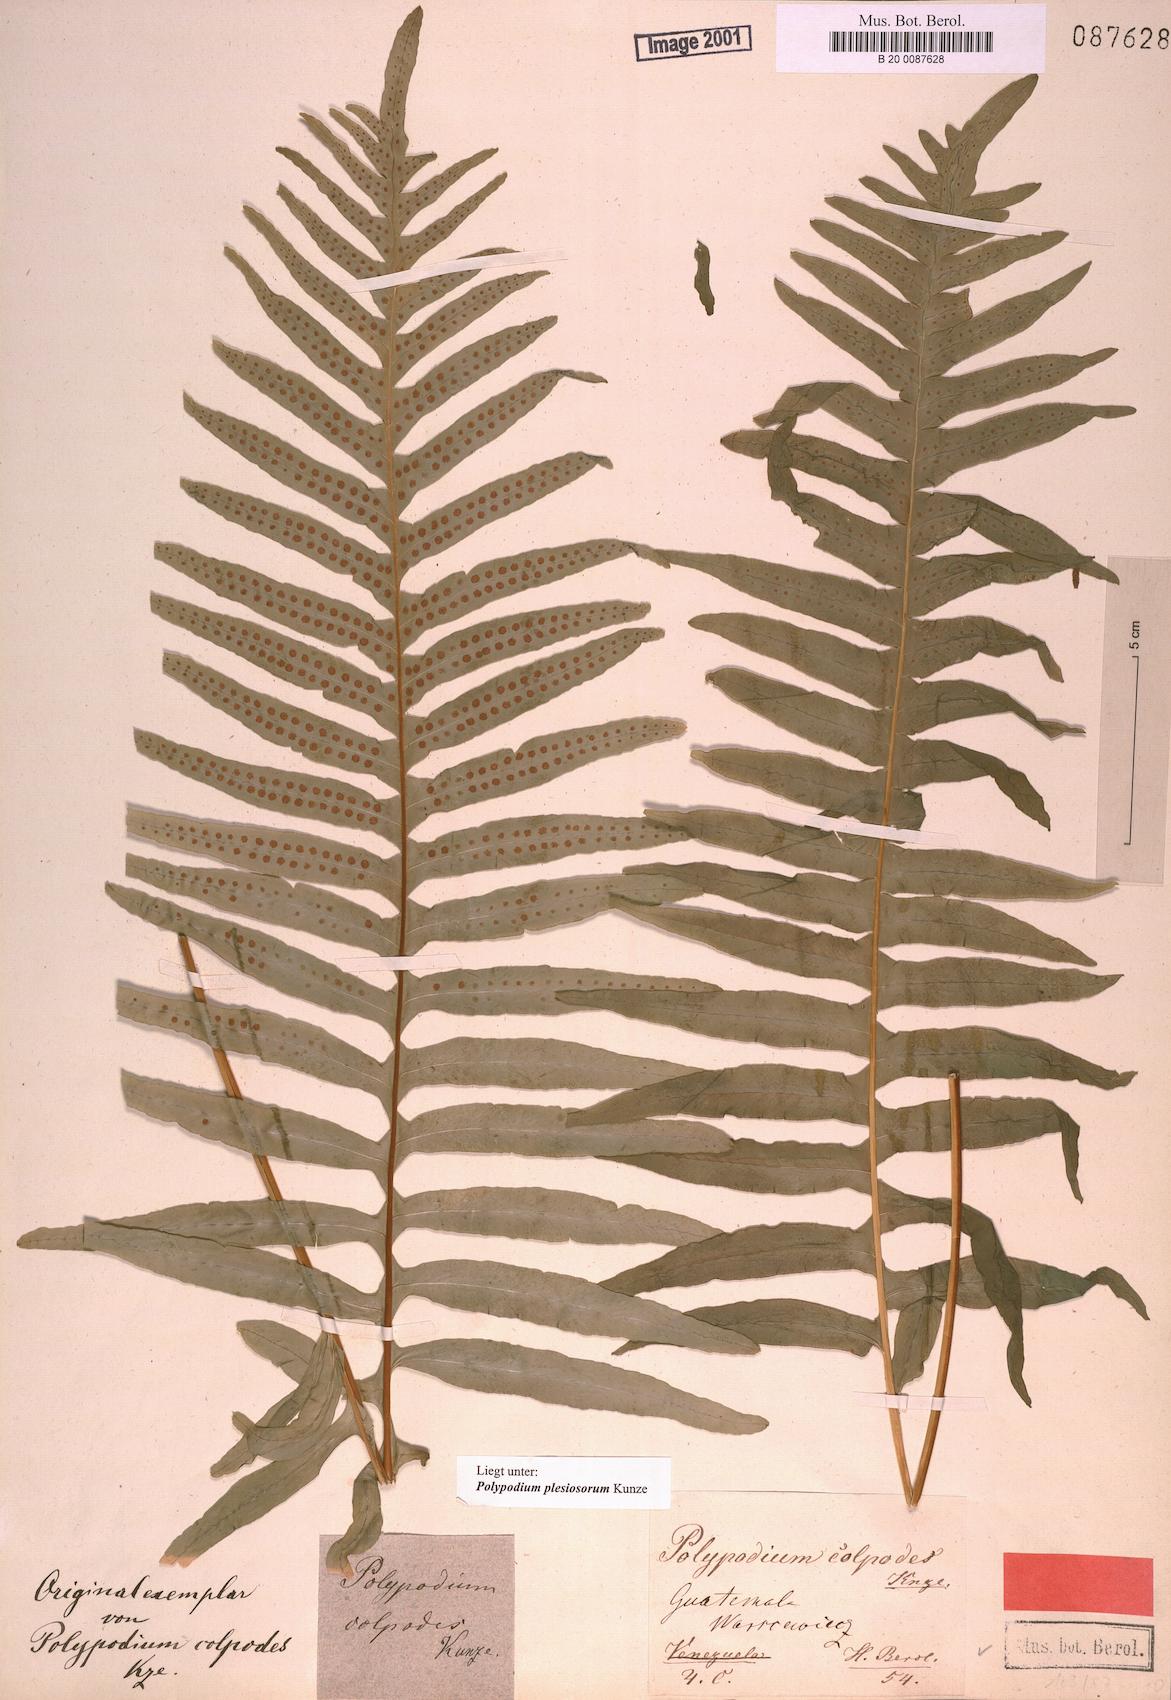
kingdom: Plantae
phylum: Tracheophyta
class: Polypodiopsida
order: Polypodiales
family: Polypodiaceae
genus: Polypodium
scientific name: Polypodium colpodes
